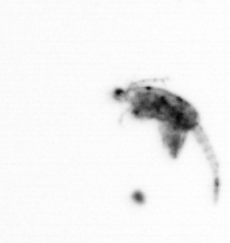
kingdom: Animalia
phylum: Arthropoda
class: Copepoda
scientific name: Copepoda
